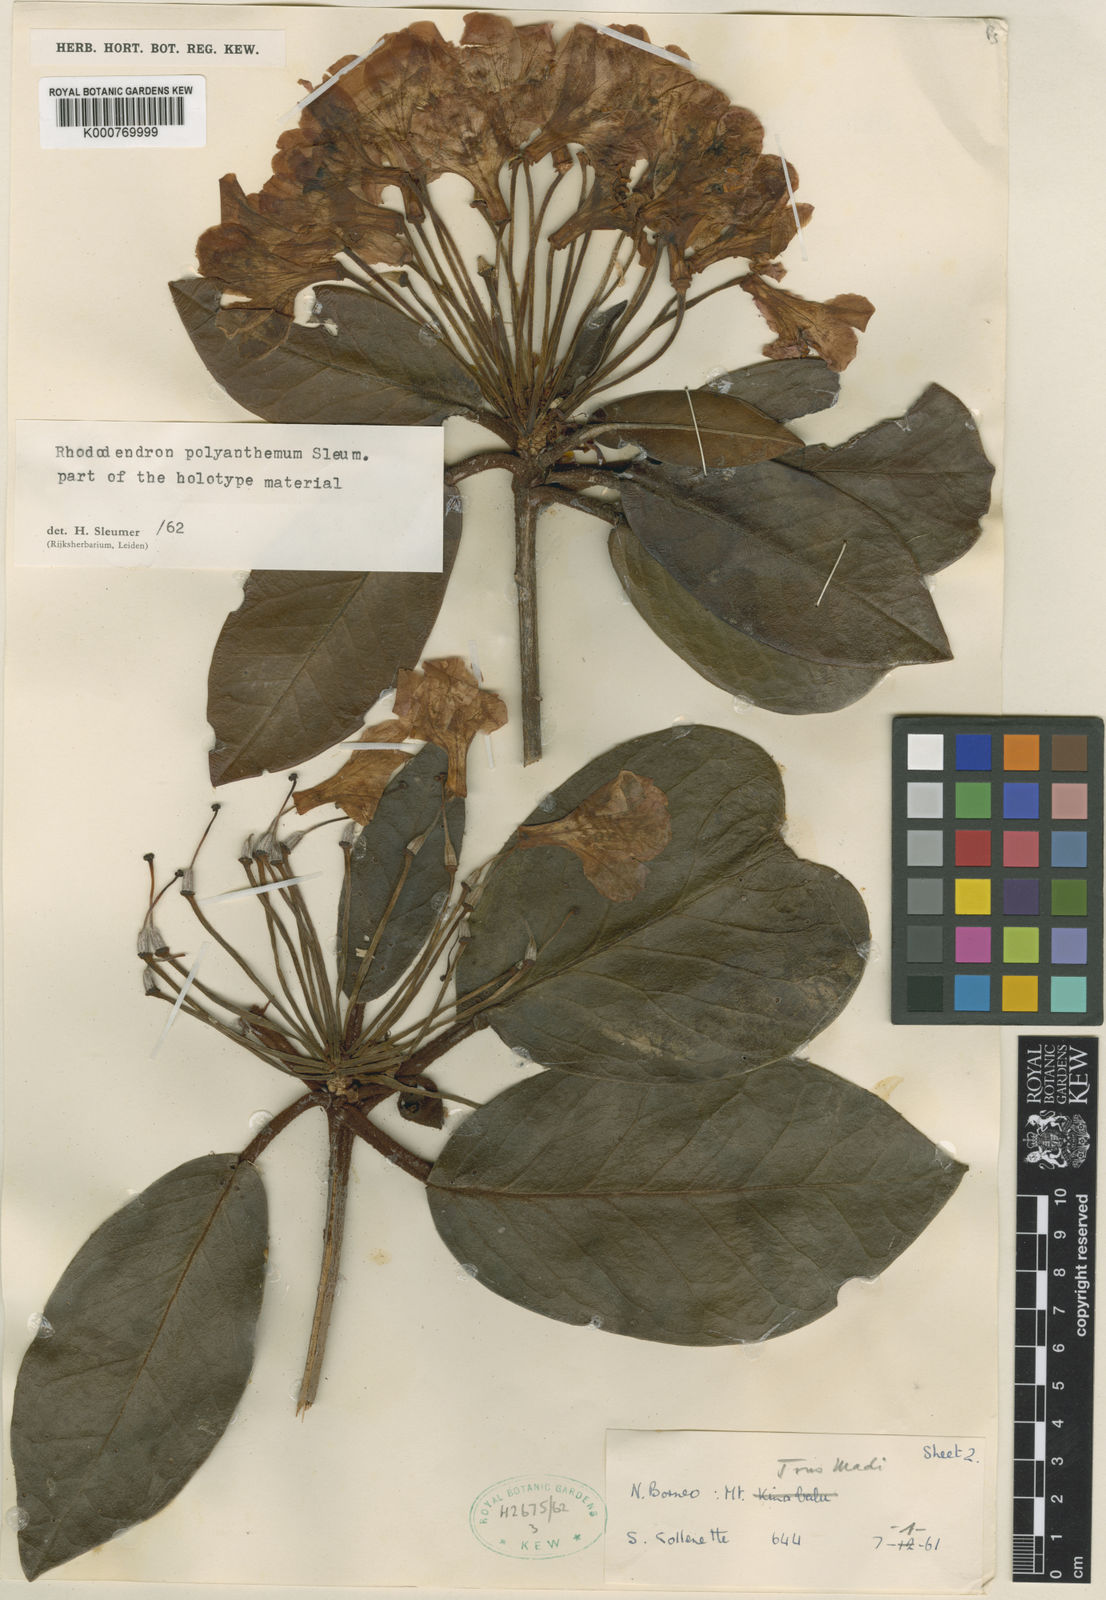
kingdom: Plantae
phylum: Tracheophyta
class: Magnoliopsida
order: Ericales
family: Ericaceae
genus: Rhododendron
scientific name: Rhododendron polyanthemum
